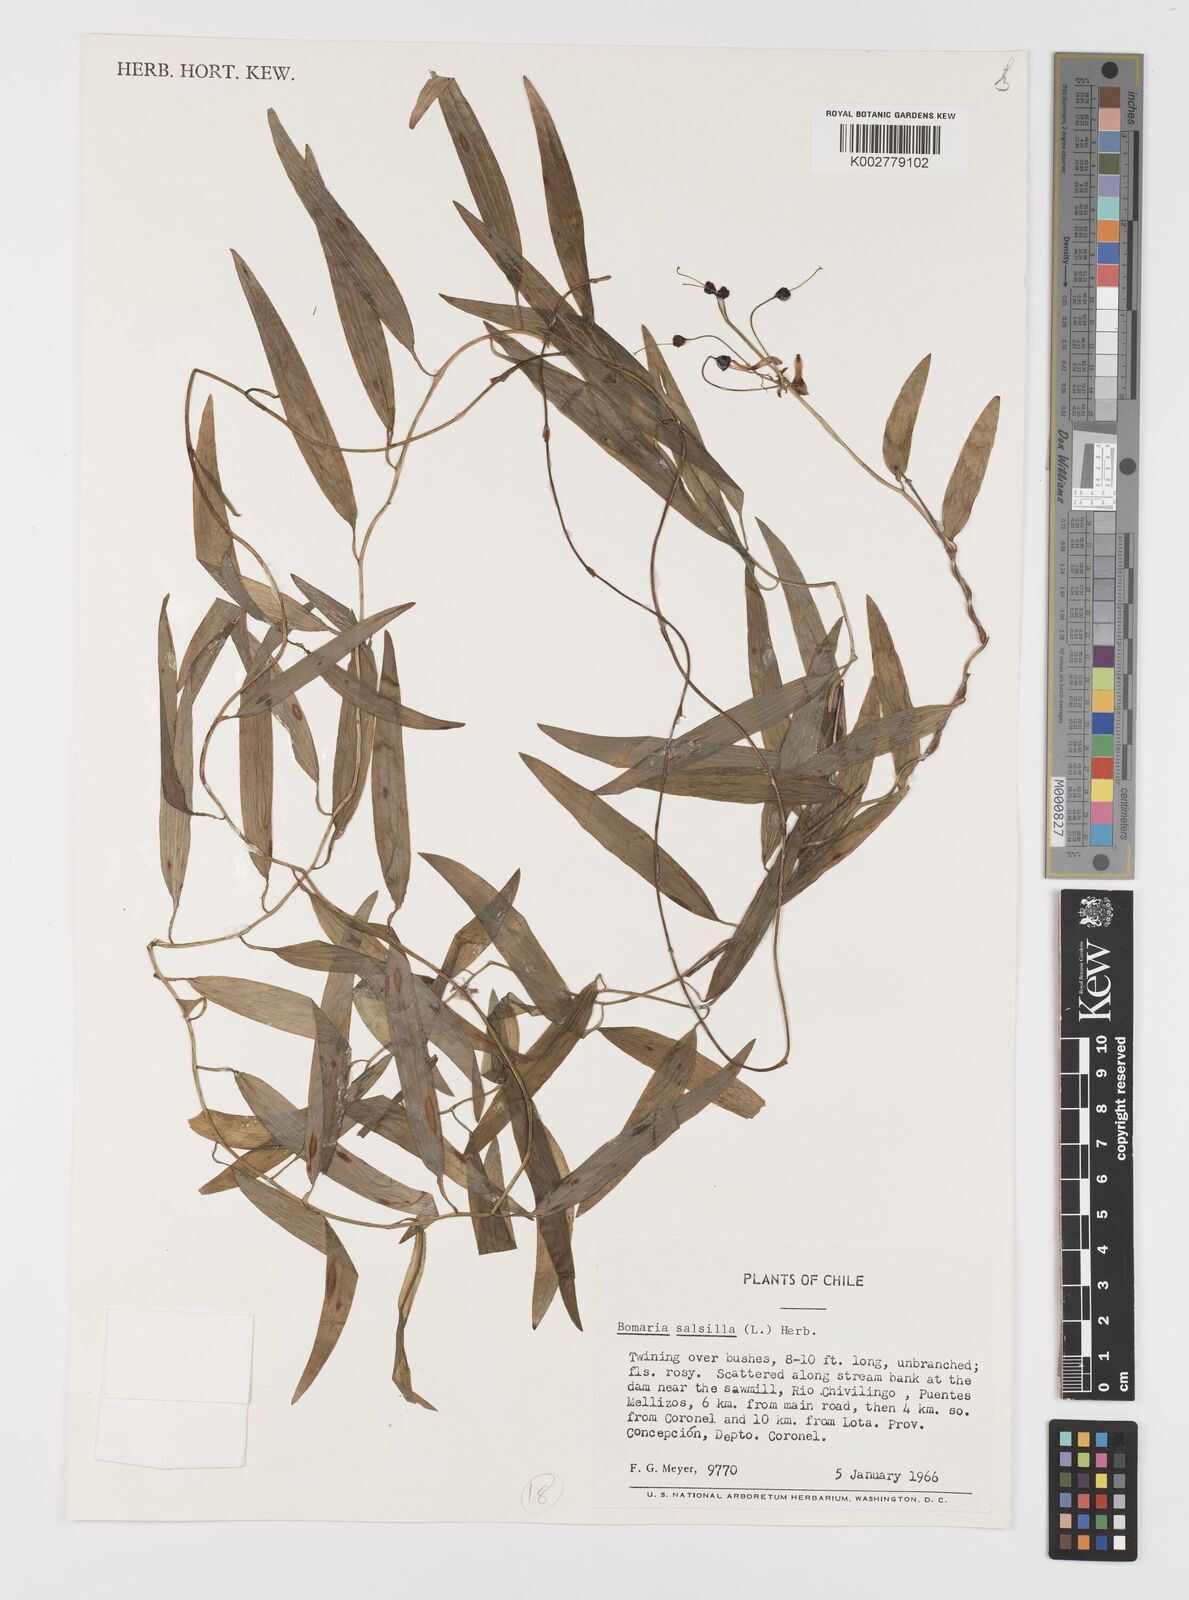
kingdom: Plantae
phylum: Tracheophyta
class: Liliopsida
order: Liliales
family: Alstroemeriaceae
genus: Bomarea
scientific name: Bomarea edulis
